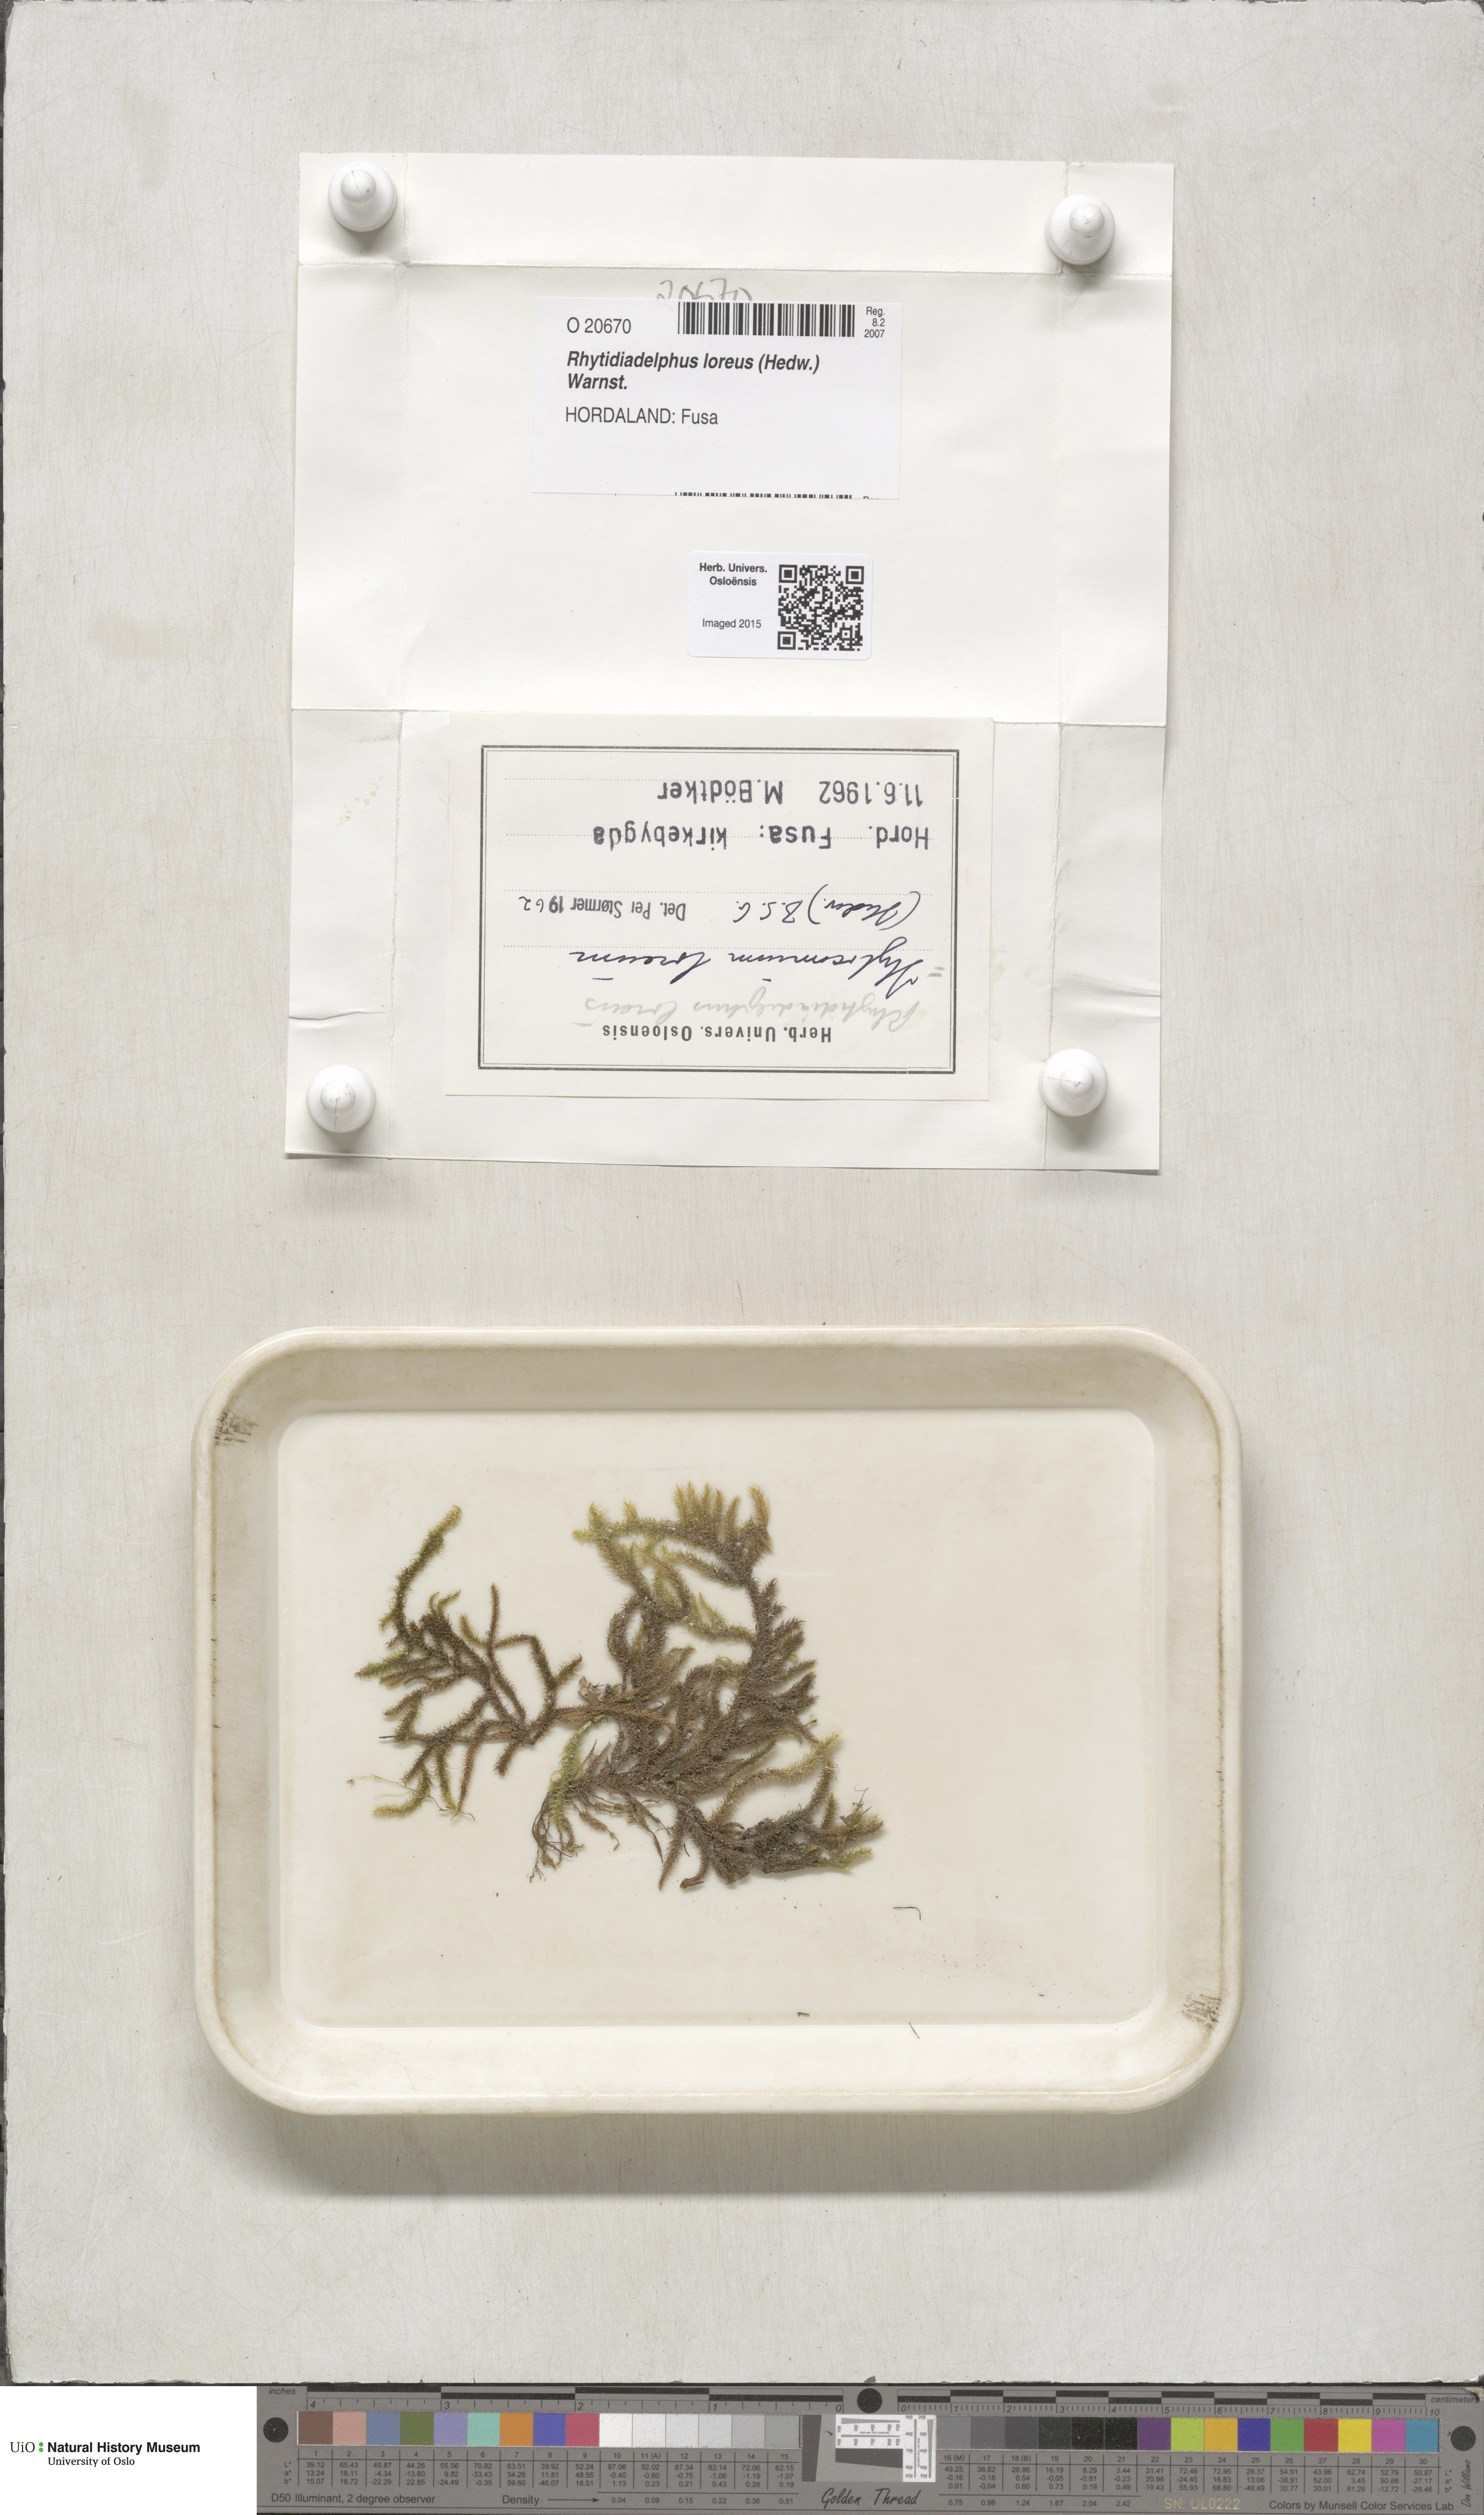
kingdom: Plantae
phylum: Bryophyta
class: Bryopsida
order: Hypnales
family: Hylocomiaceae
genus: Rhytidiadelphus
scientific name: Rhytidiadelphus loreus
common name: Lanky moss
